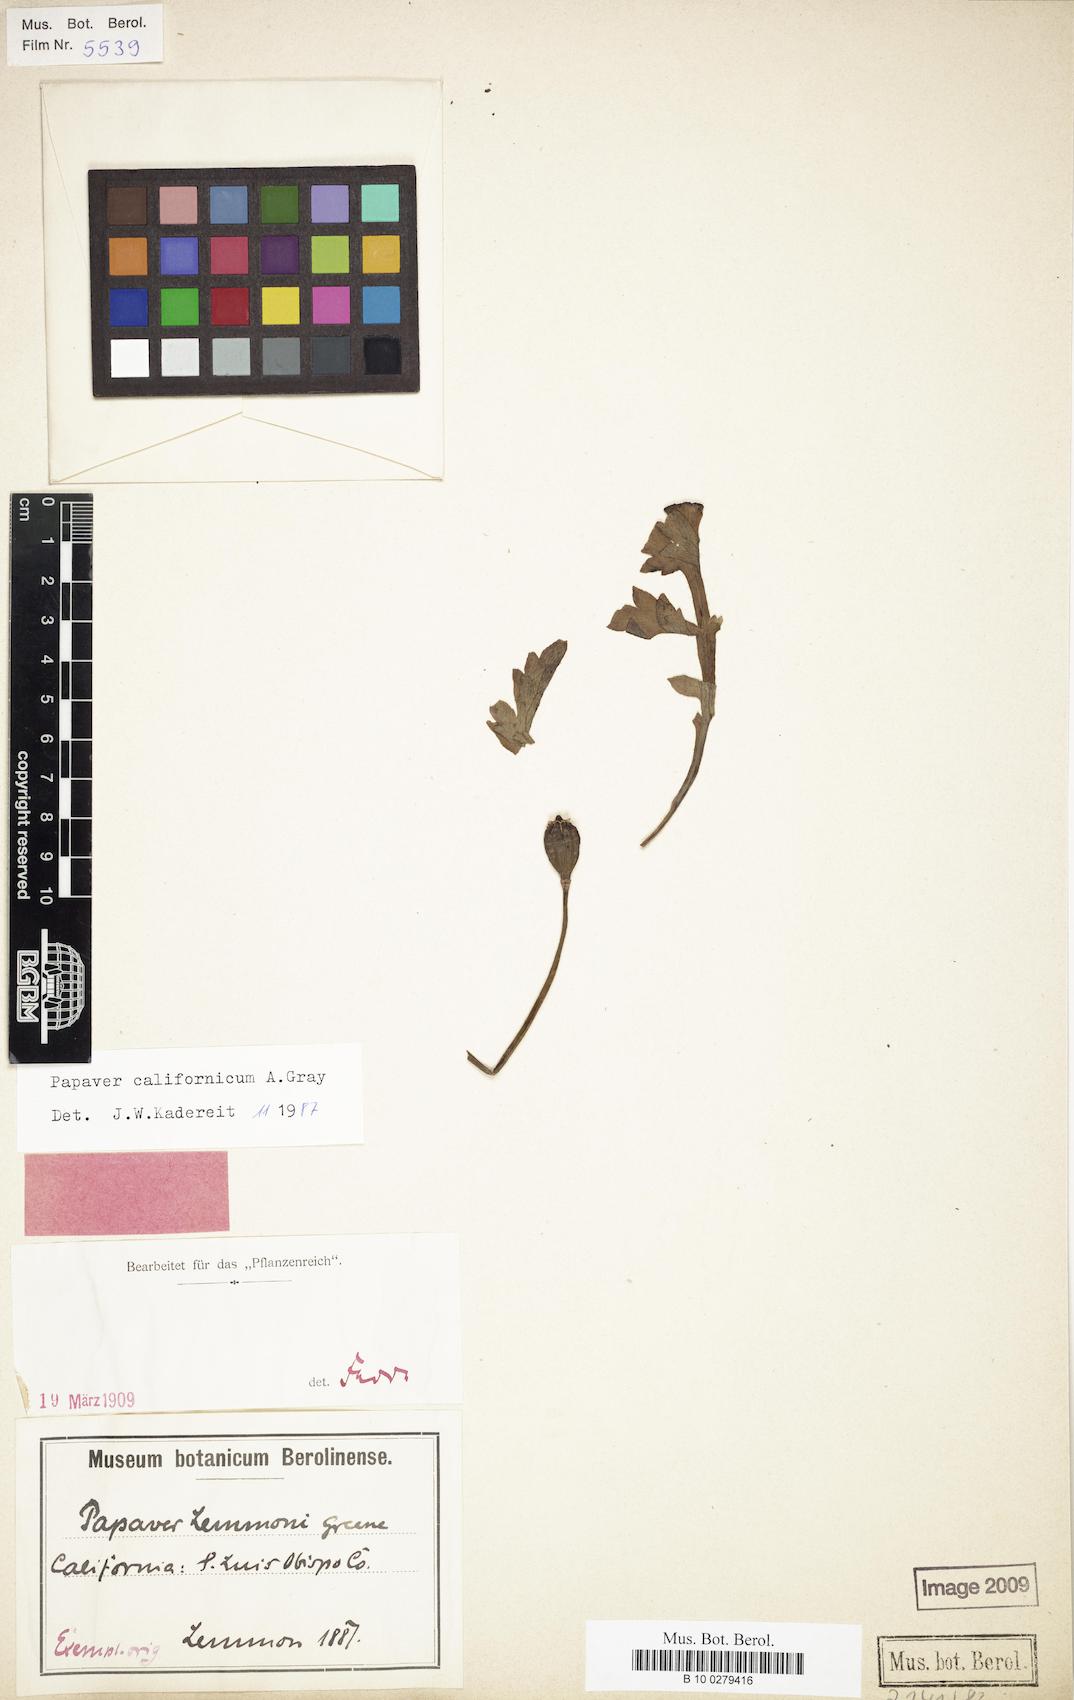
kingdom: Plantae
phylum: Tracheophyta
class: Magnoliopsida
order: Ranunculales
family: Papaveraceae
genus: Papaver
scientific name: Papaver californicum
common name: Fire poppy
